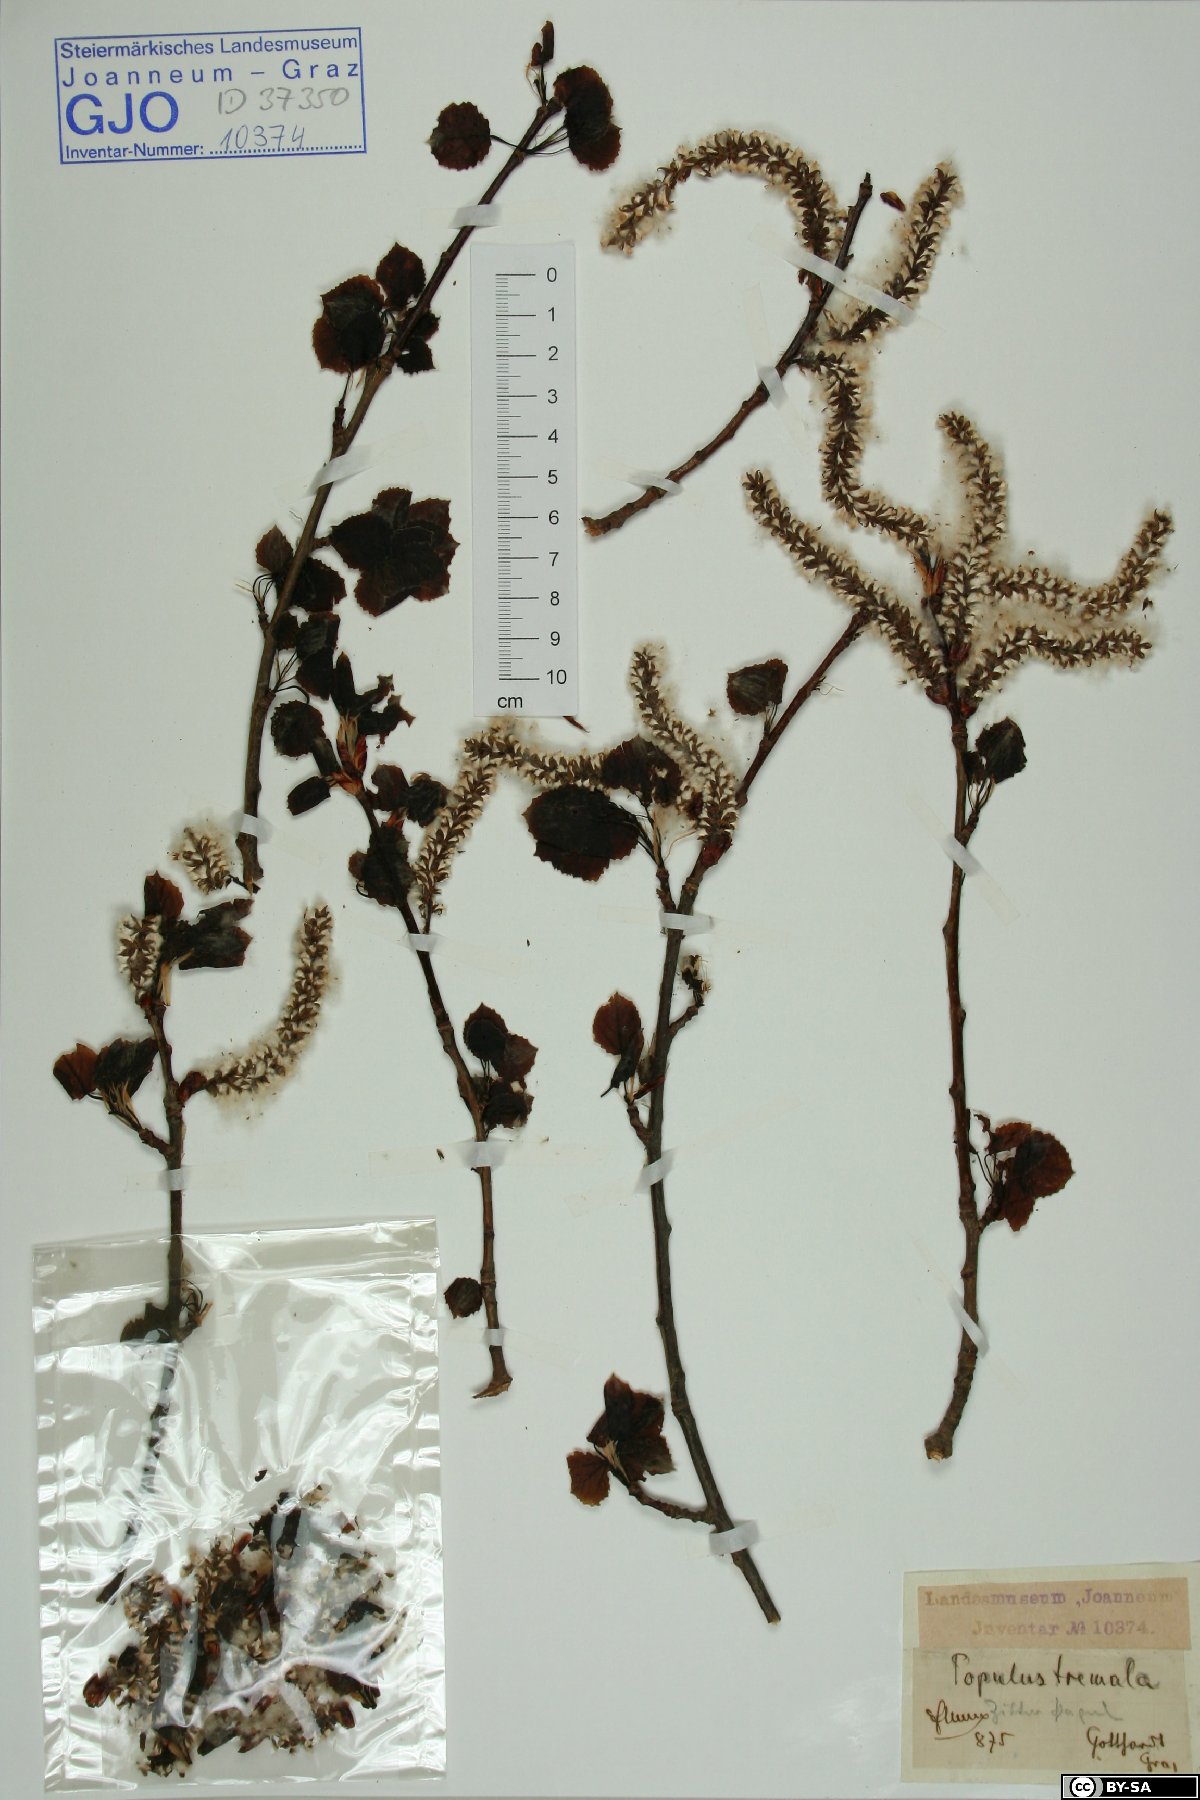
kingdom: Plantae
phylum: Tracheophyta
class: Magnoliopsida
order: Malpighiales
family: Salicaceae
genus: Populus
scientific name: Populus tremula
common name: European aspen
